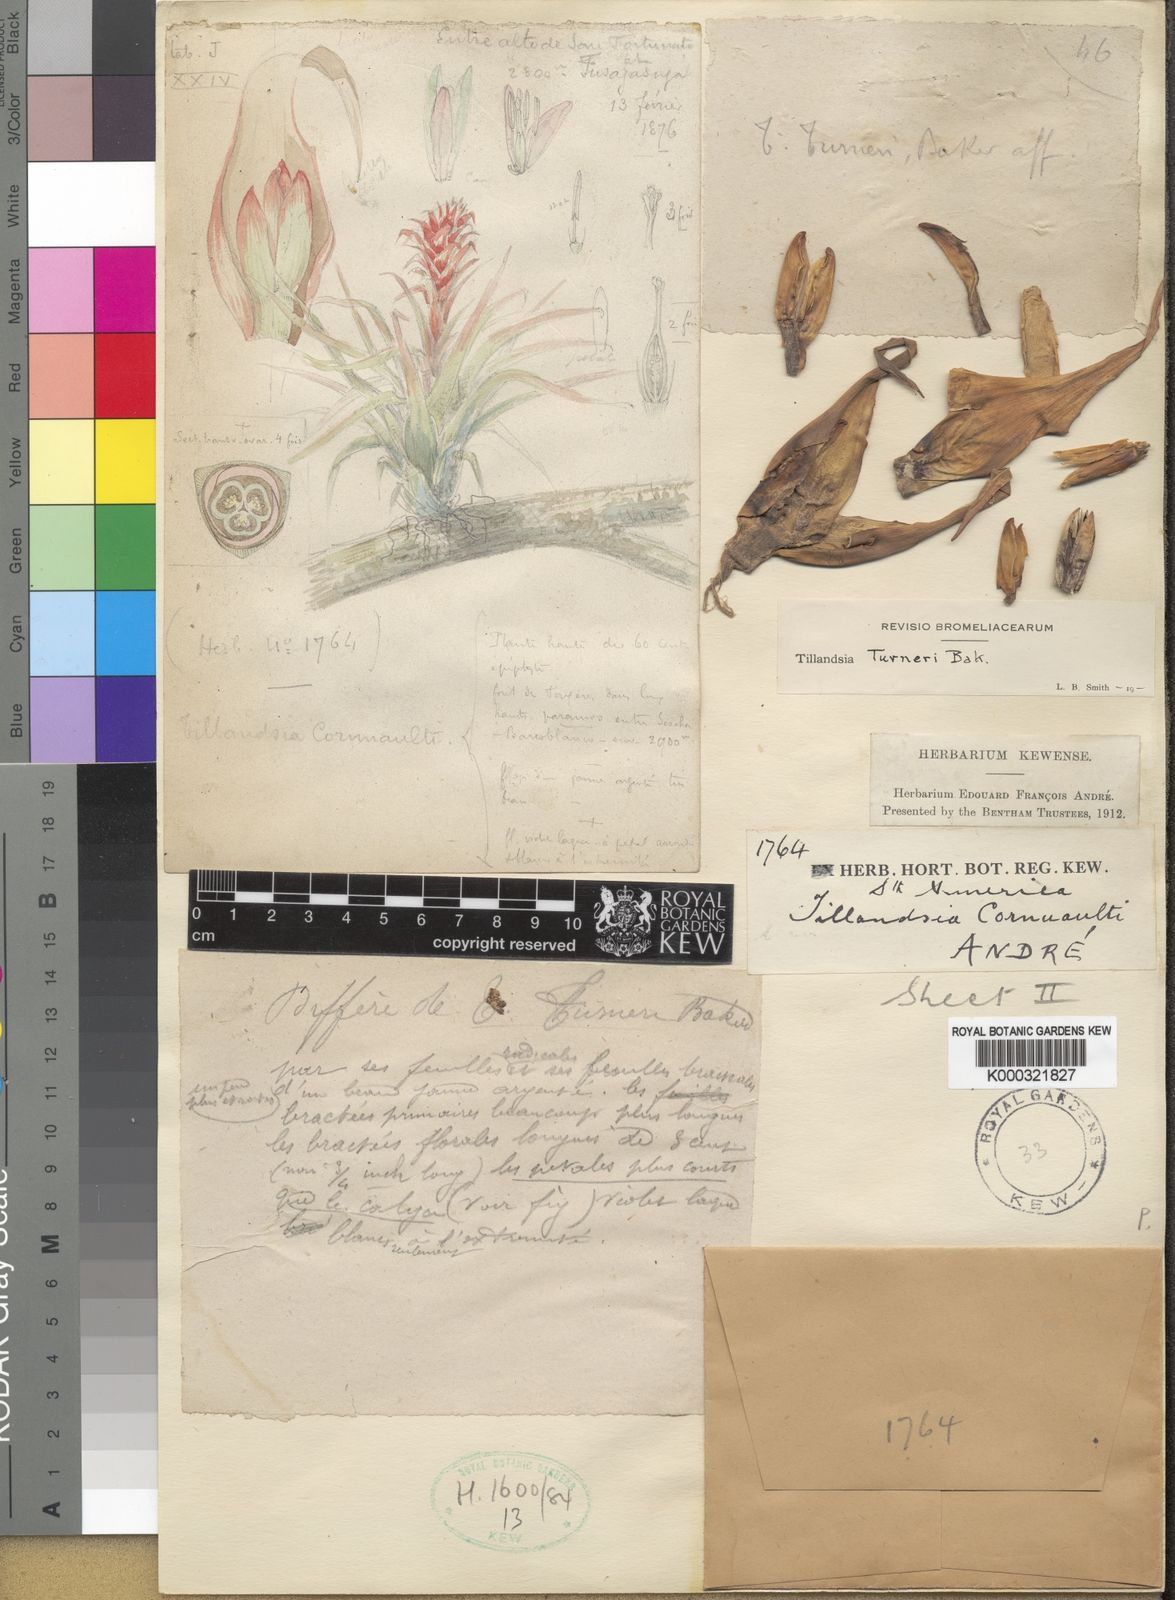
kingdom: Plantae
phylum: Tracheophyta
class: Liliopsida
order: Poales
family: Bromeliaceae
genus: Tillandsia
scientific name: Tillandsia turneri
